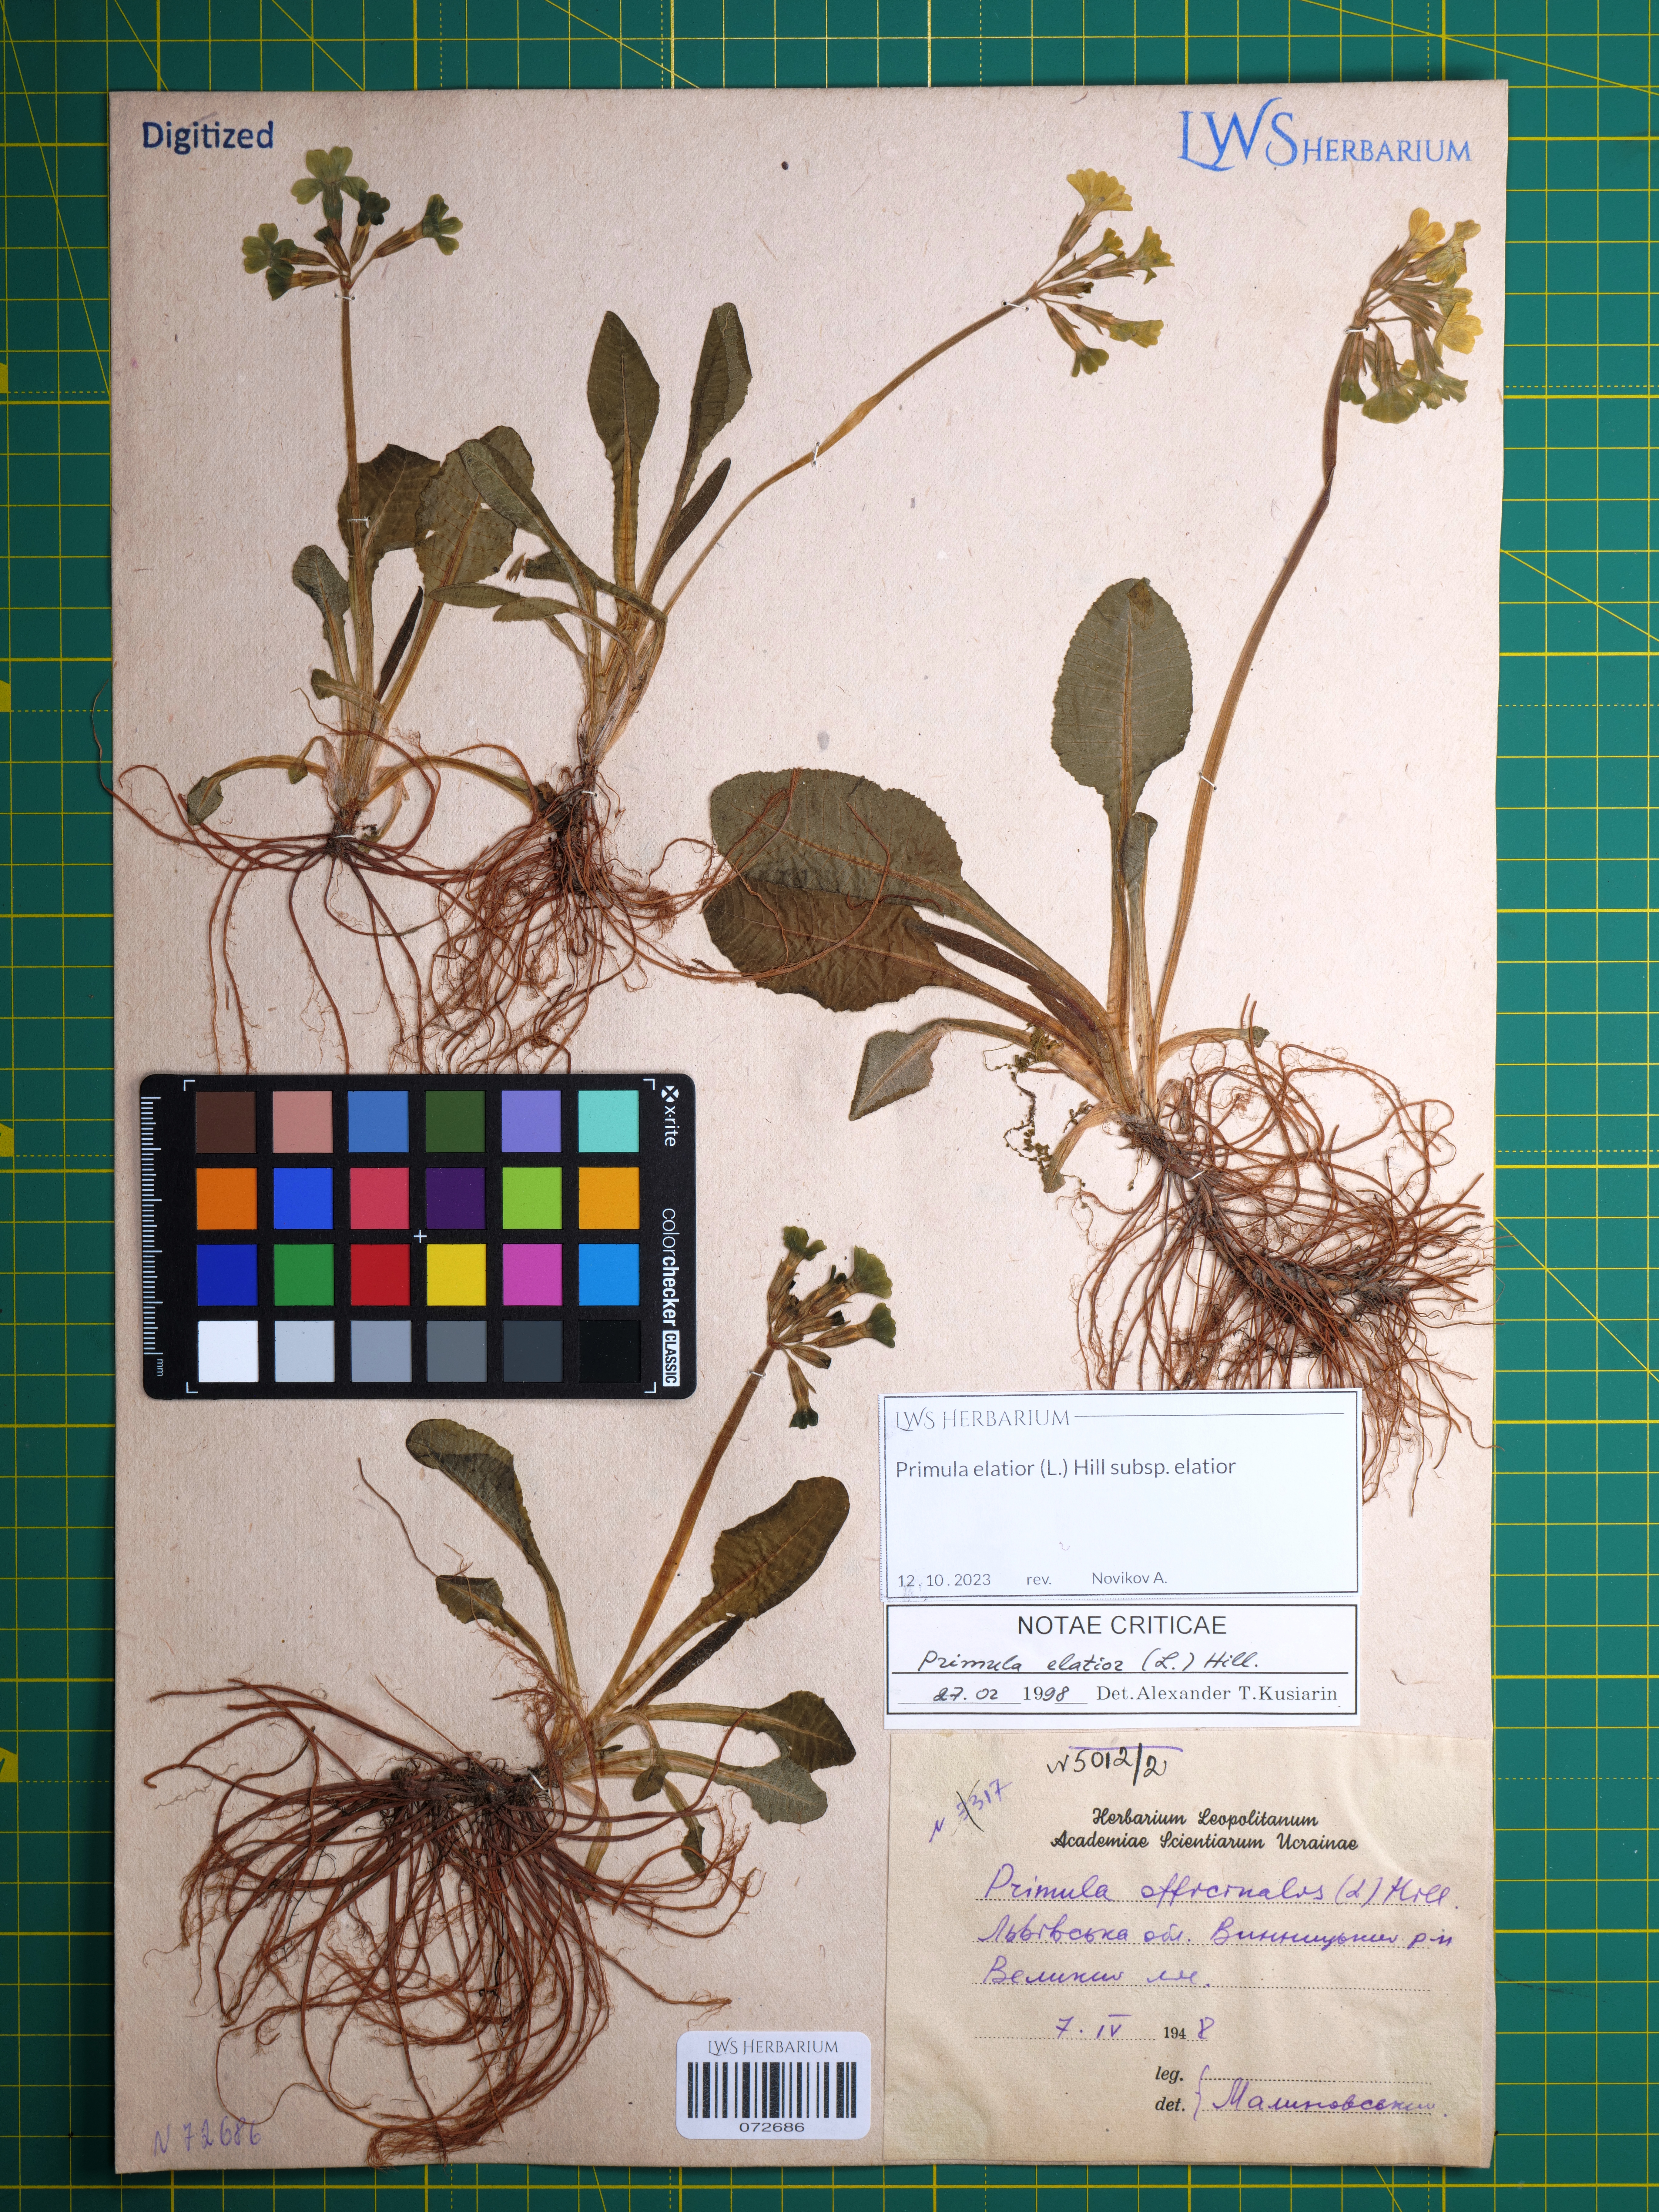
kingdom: Plantae
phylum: Tracheophyta
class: Magnoliopsida
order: Ericales
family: Primulaceae
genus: Primula
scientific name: Primula elatior
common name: Oxlip
